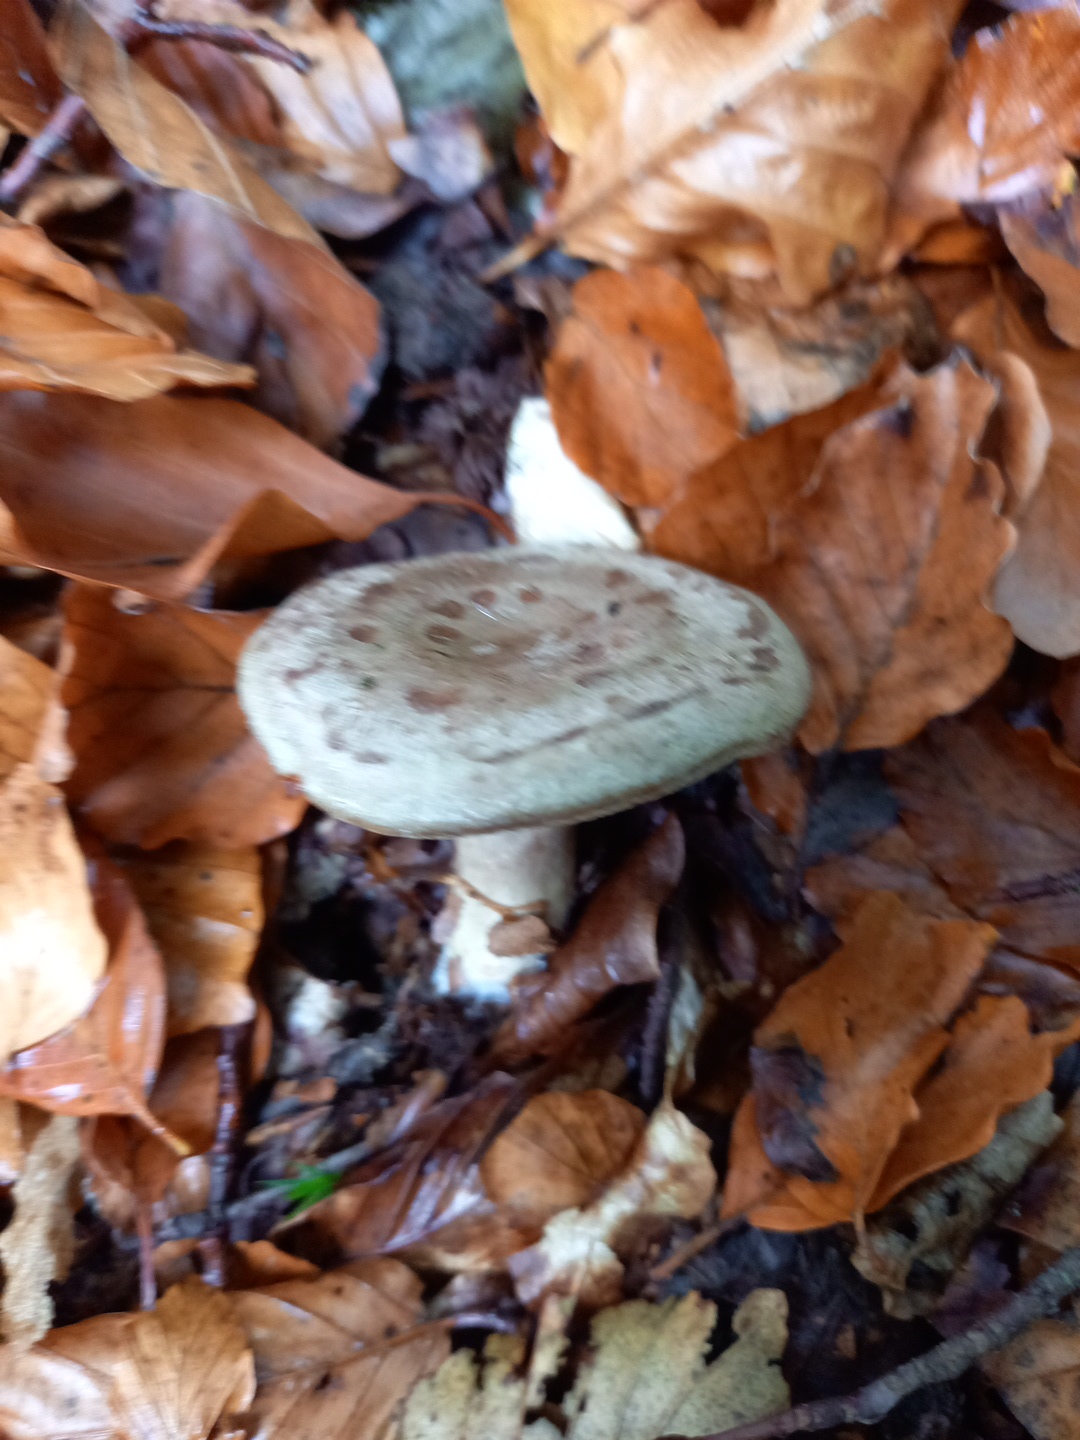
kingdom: Fungi
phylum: Basidiomycota
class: Agaricomycetes
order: Russulales
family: Russulaceae
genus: Lactarius
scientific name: Lactarius blennius
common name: dråbeplettet mælkehat
